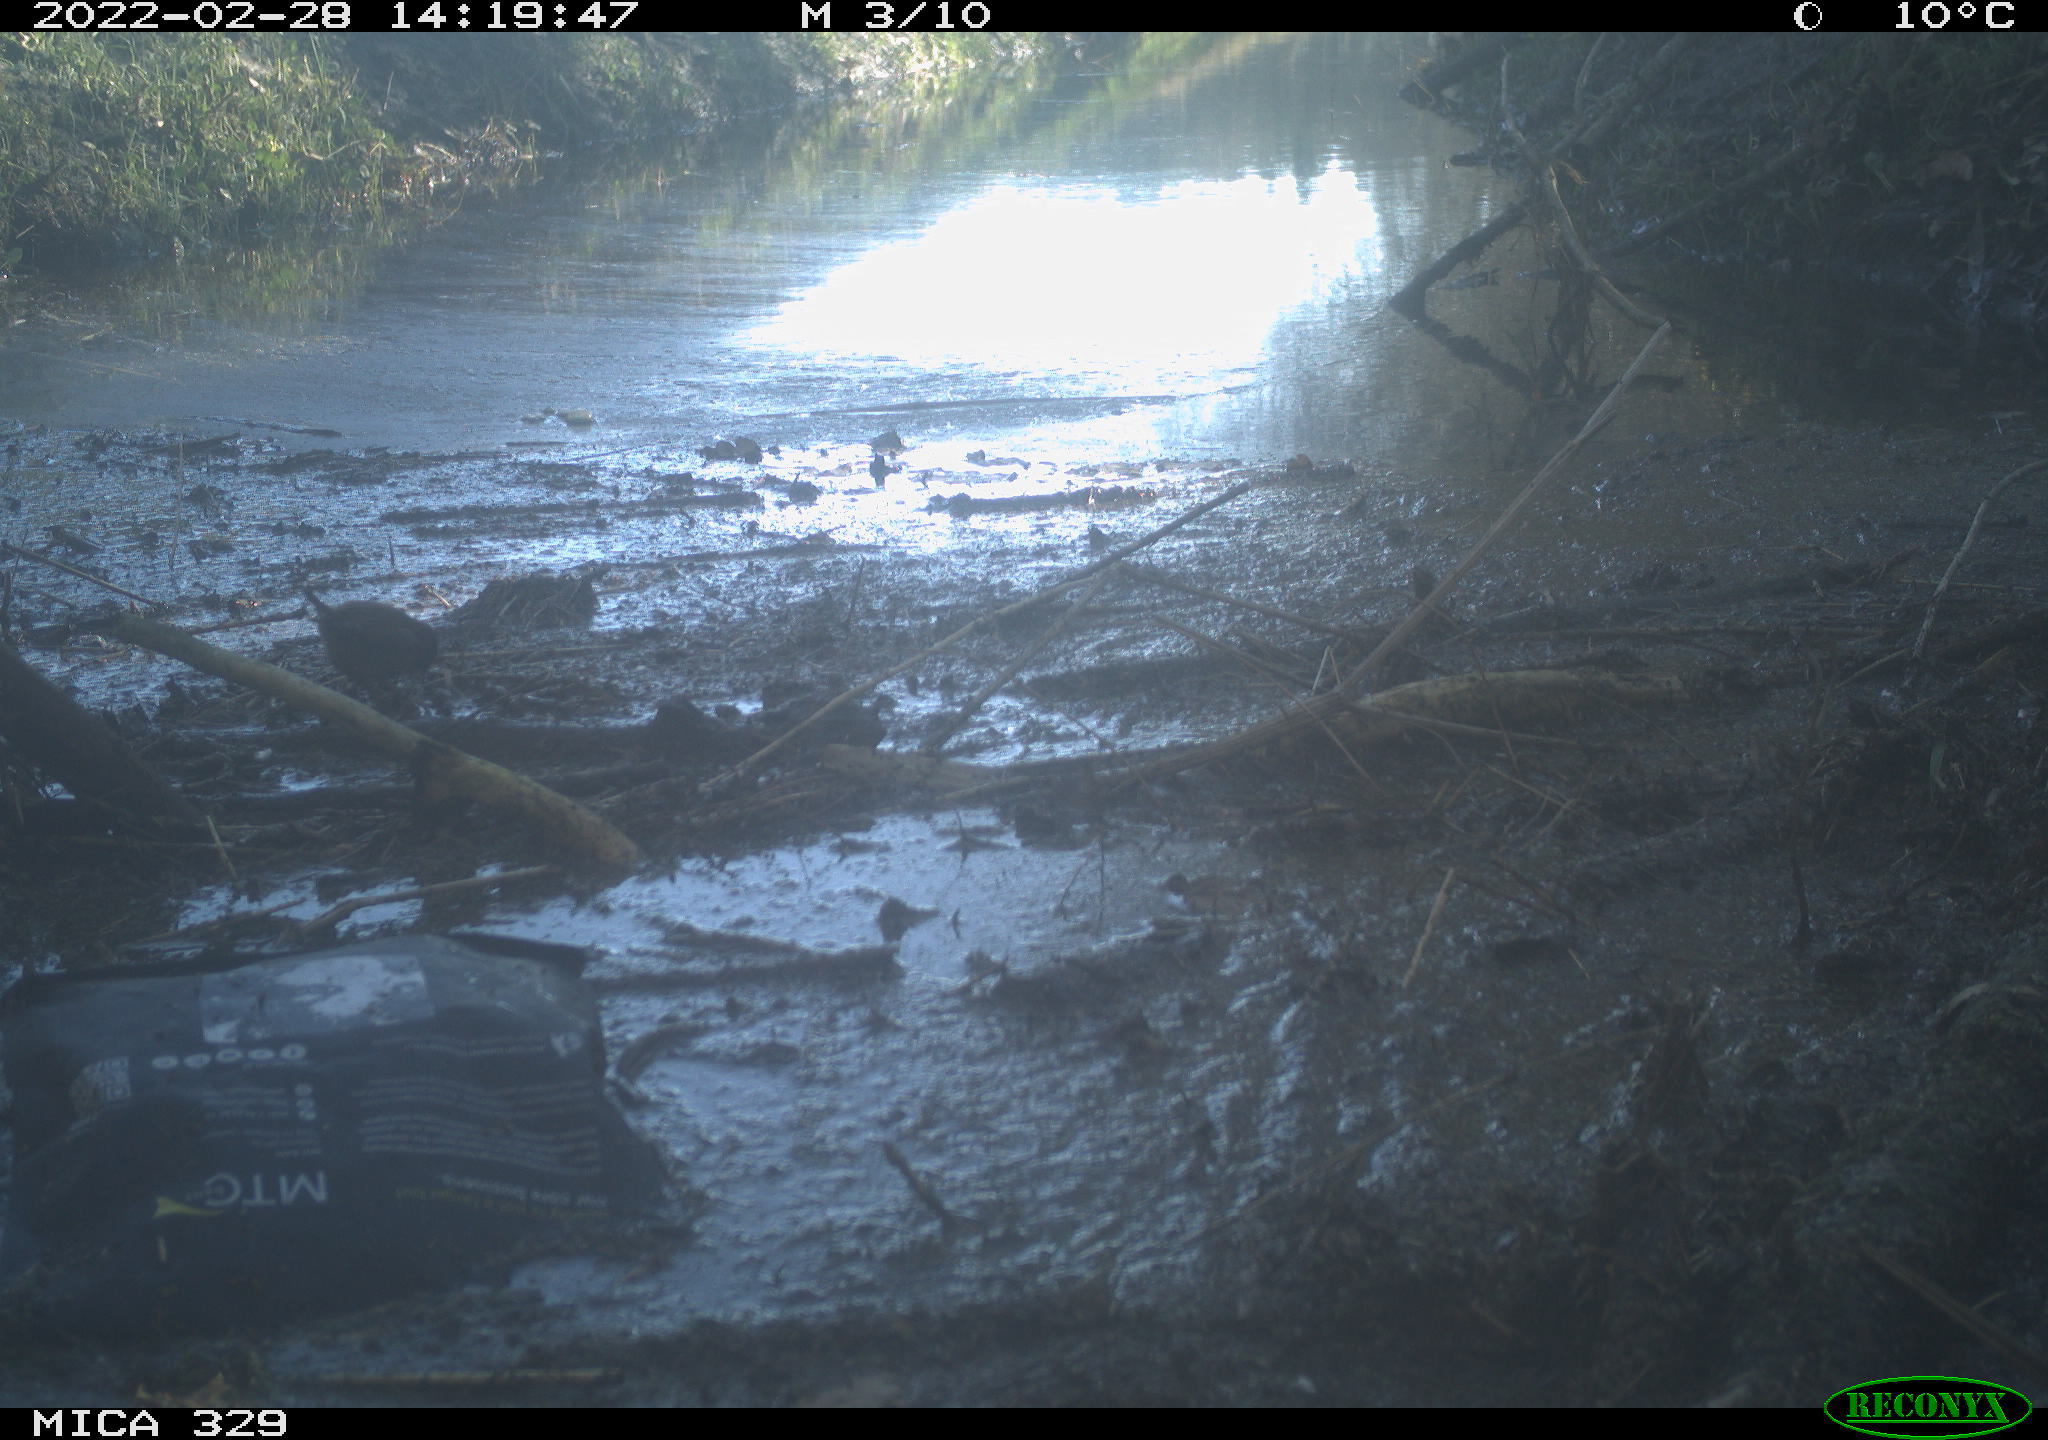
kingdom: Animalia
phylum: Chordata
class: Aves
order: Passeriformes
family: Fringillidae
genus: Fringilla
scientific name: Fringilla coelebs
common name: Common chaffinch
